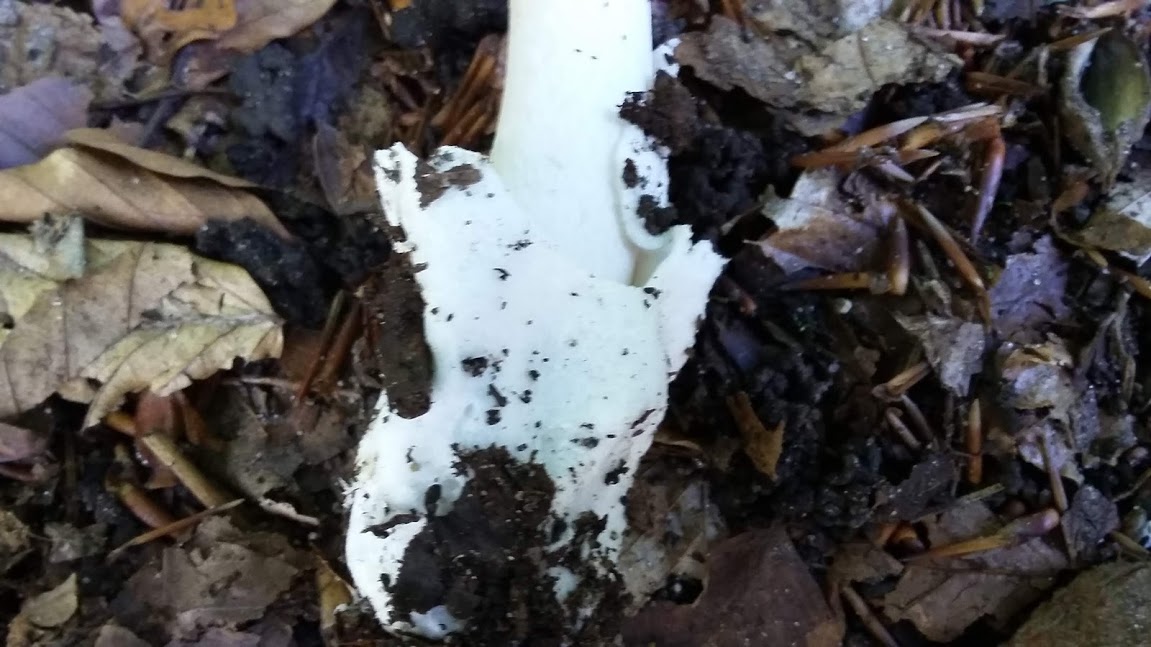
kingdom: Fungi
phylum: Basidiomycota
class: Agaricomycetes
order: Agaricales
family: Amanitaceae
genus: Amanita
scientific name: Amanita vaginata
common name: grå kam-fluesvamp
